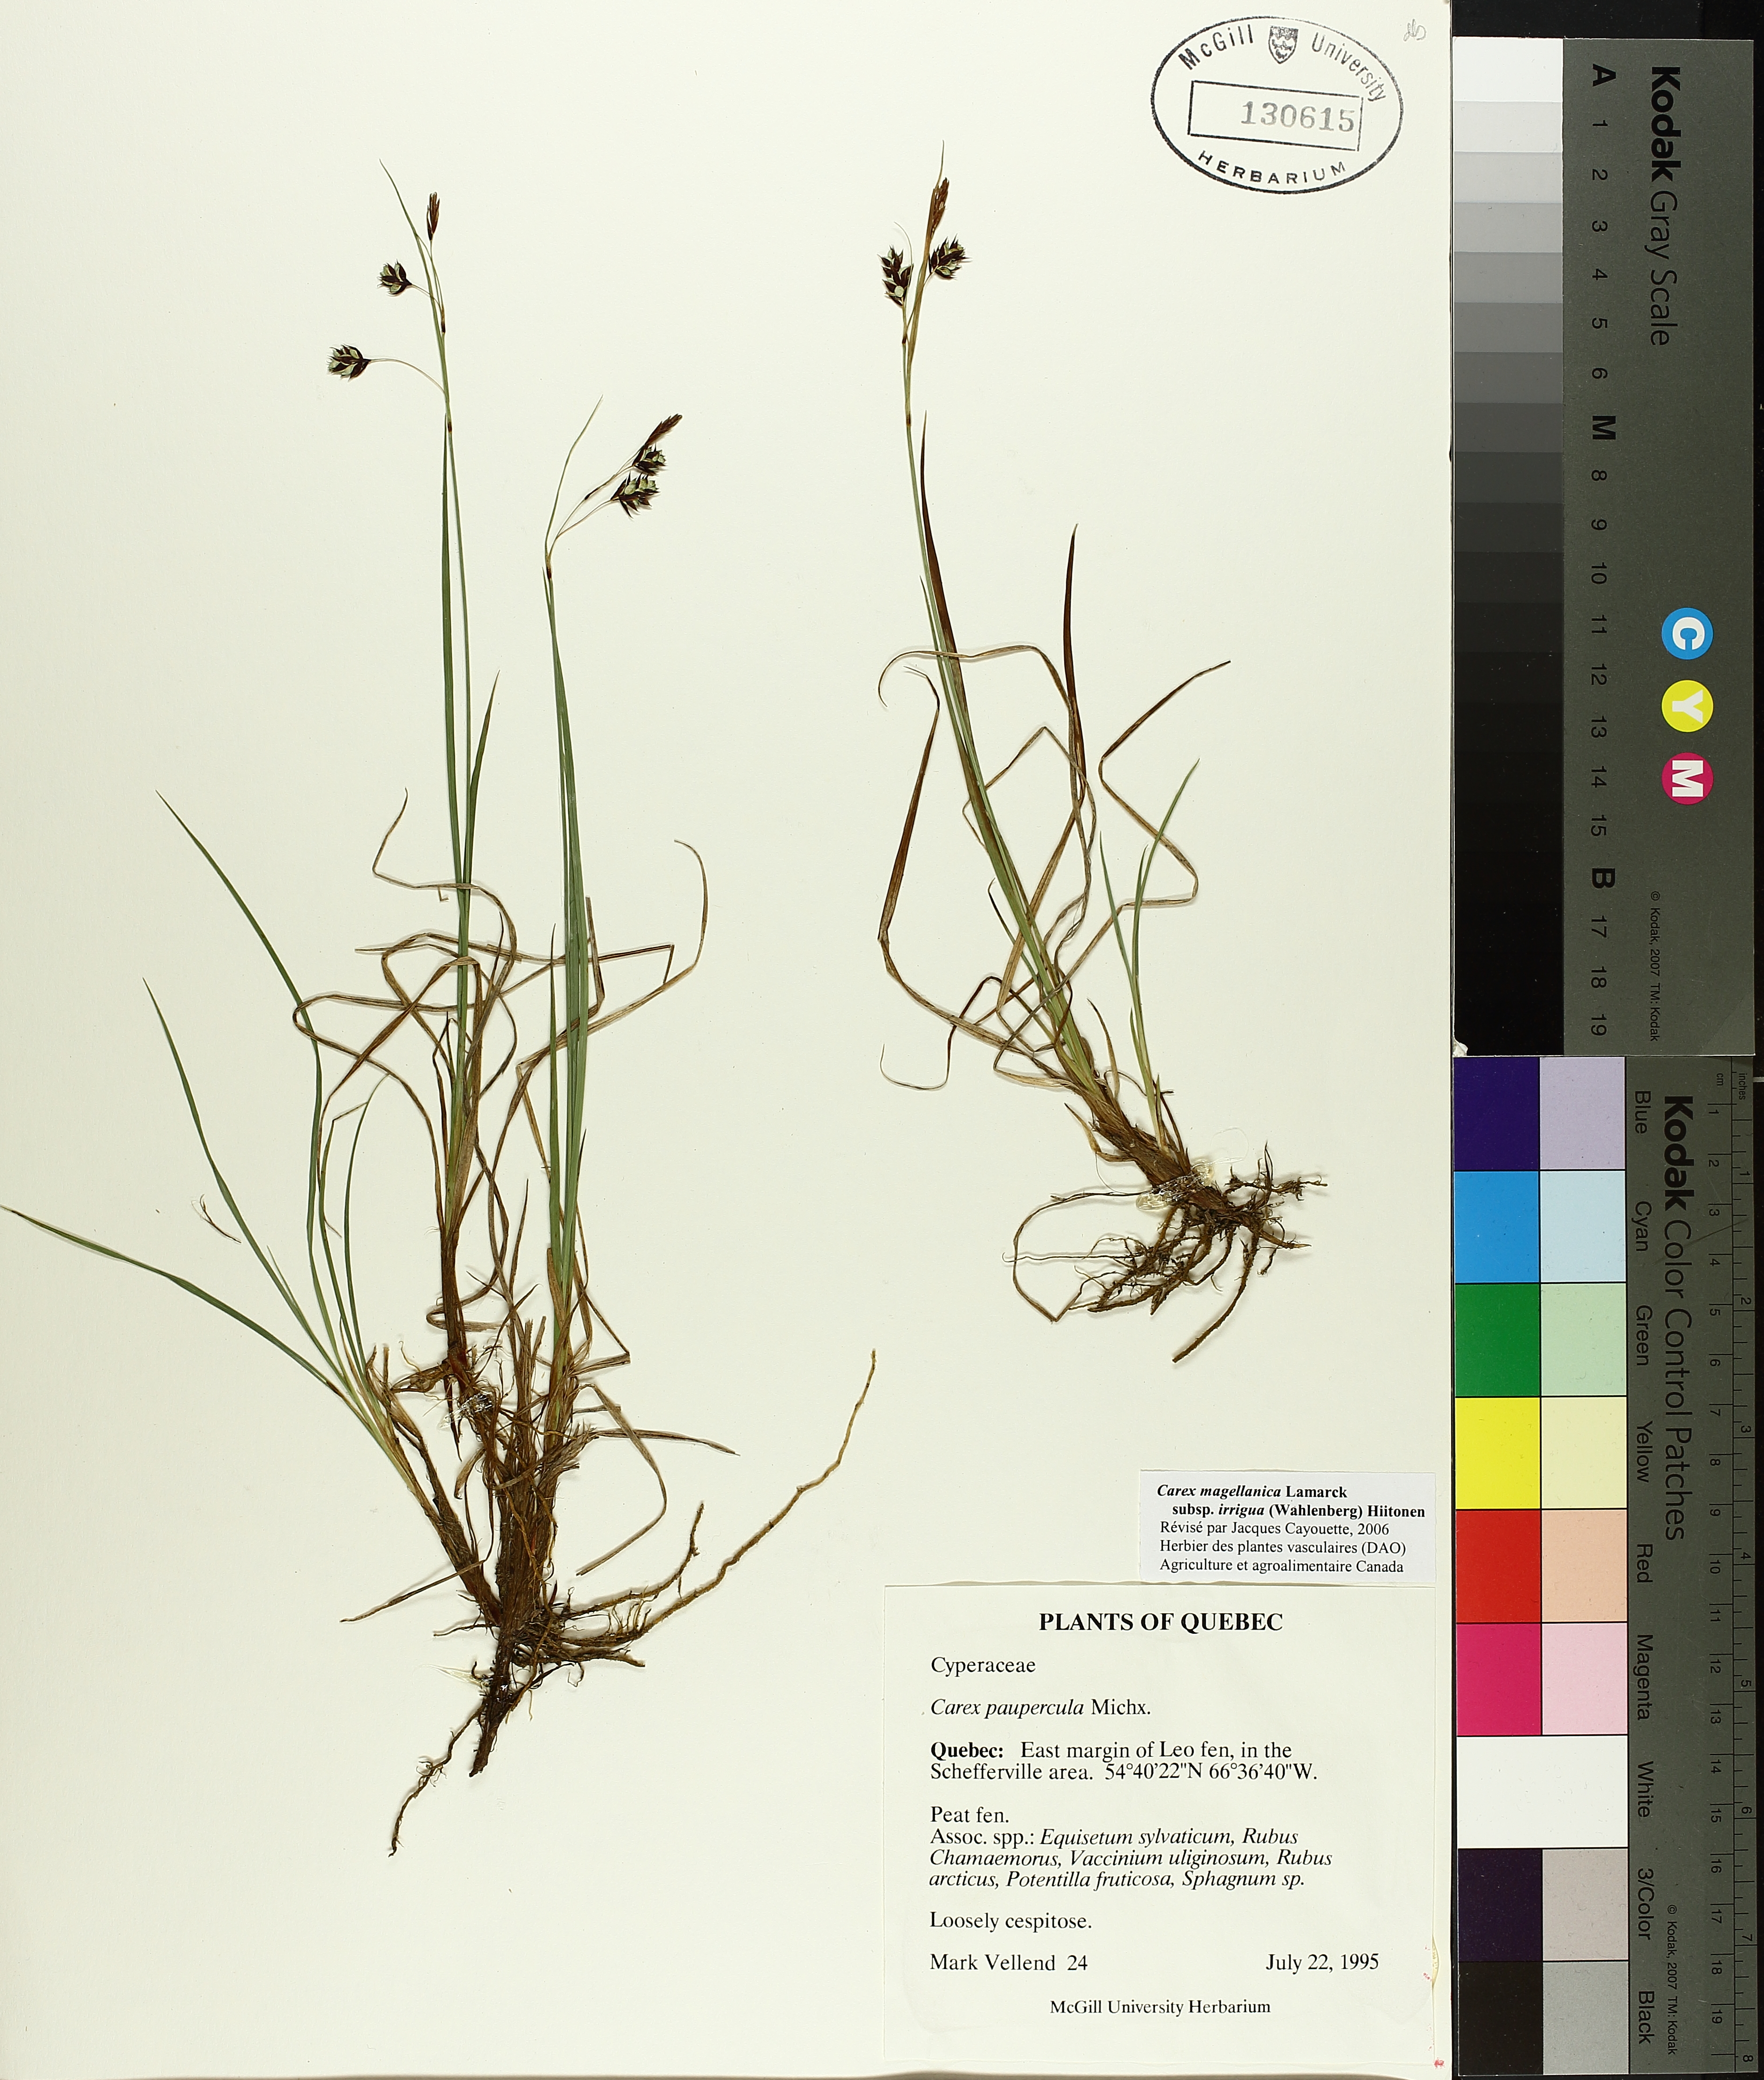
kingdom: Plantae
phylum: Tracheophyta
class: Liliopsida
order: Poales
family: Cyperaceae
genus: Carex
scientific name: Carex magellanica
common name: Bog sedge
